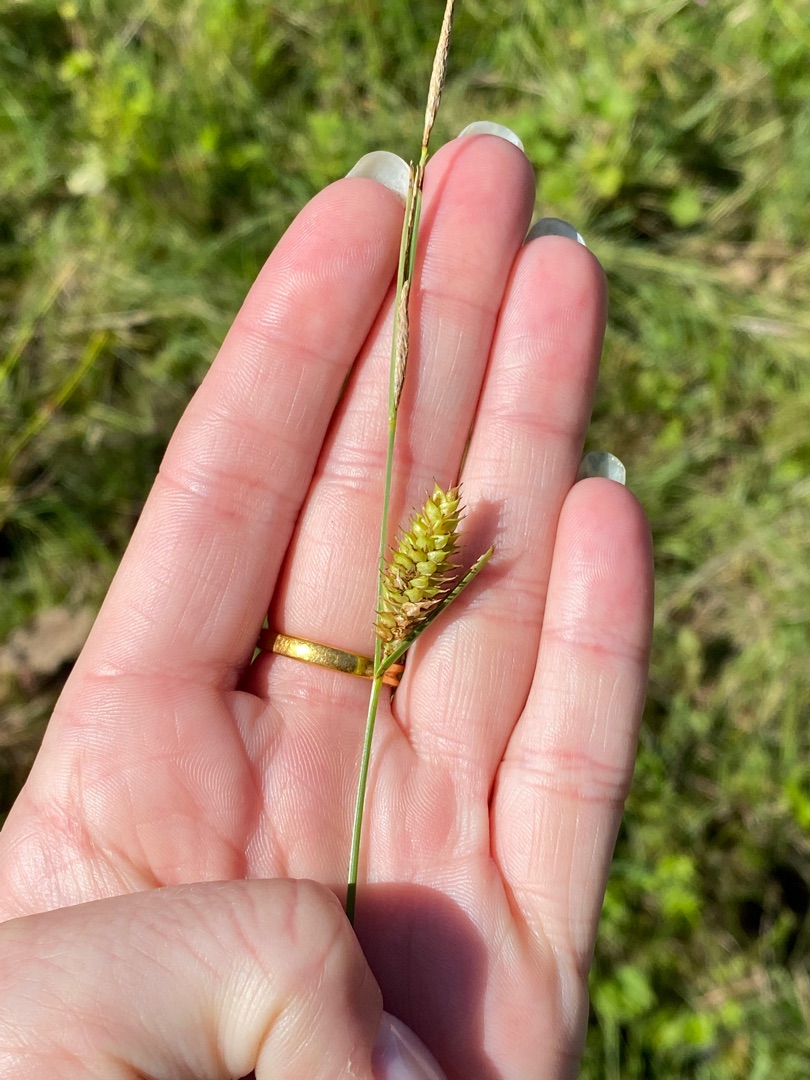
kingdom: Plantae
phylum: Tracheophyta
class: Liliopsida
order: Poales
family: Cyperaceae
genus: Carex
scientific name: Carex vesicaria
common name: Blære-star
